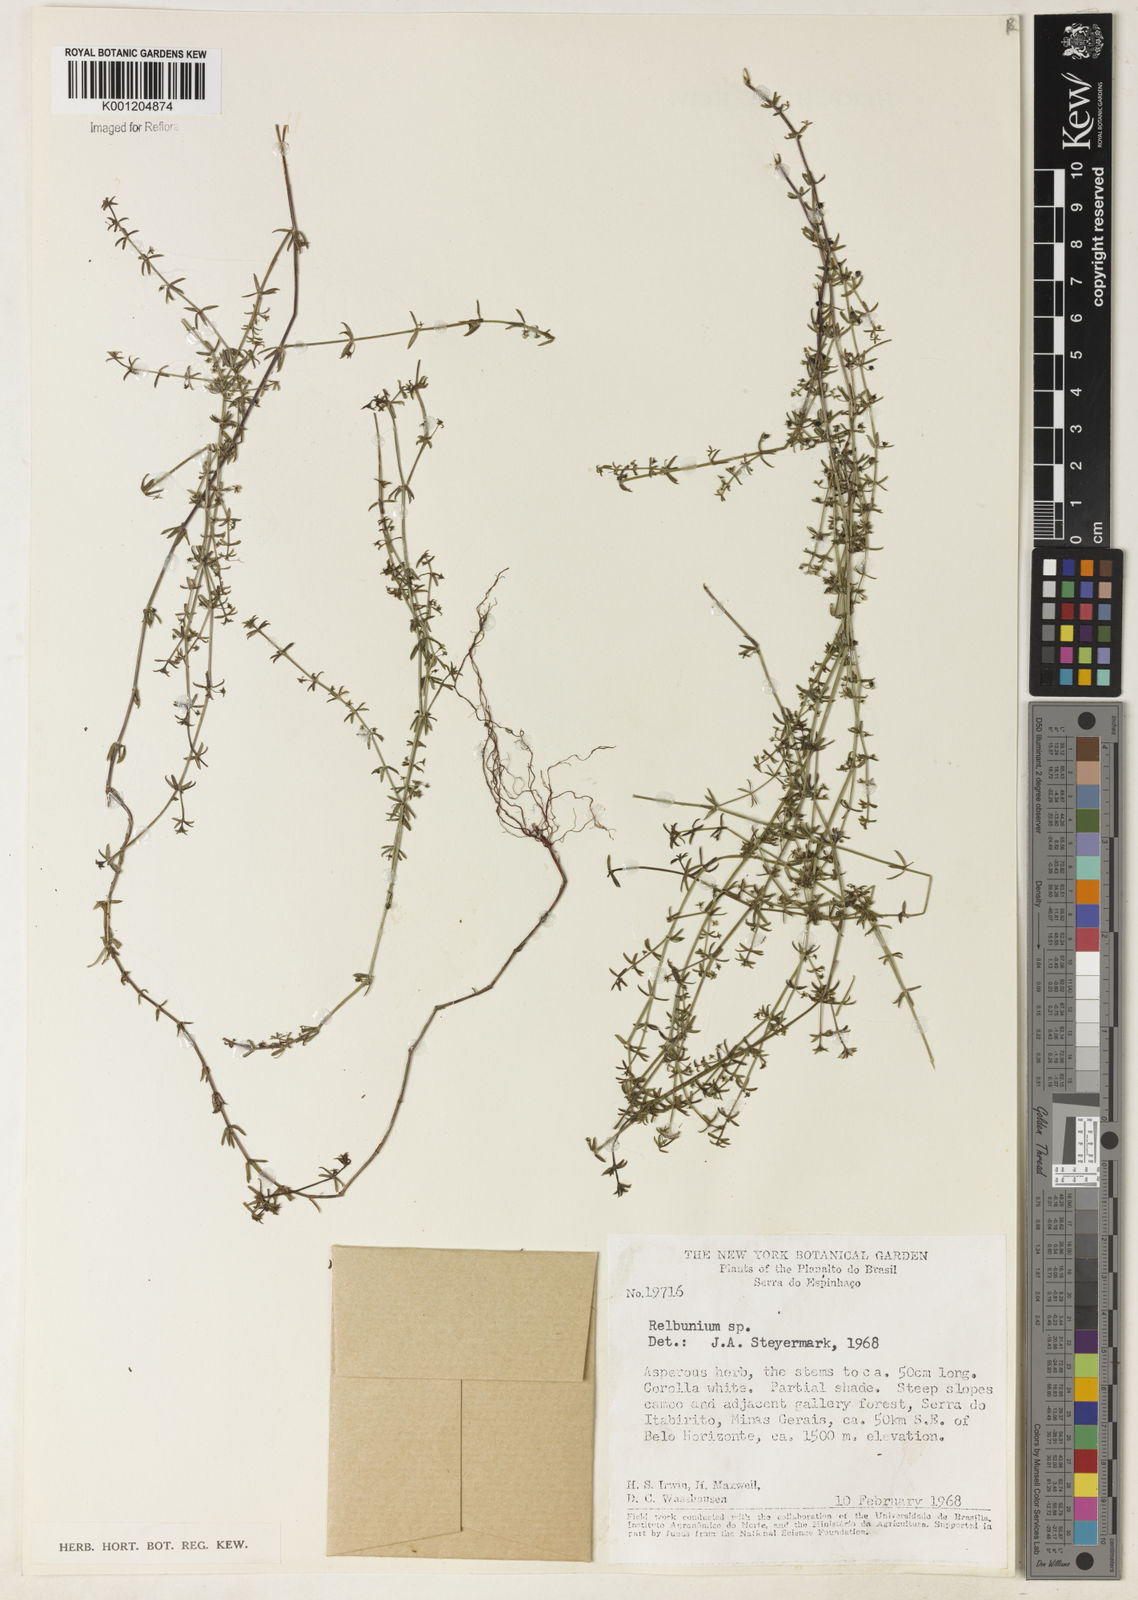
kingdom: Plantae
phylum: Tracheophyta
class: Magnoliopsida
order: Gentianales
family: Rubiaceae
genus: Galium
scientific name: Galium
